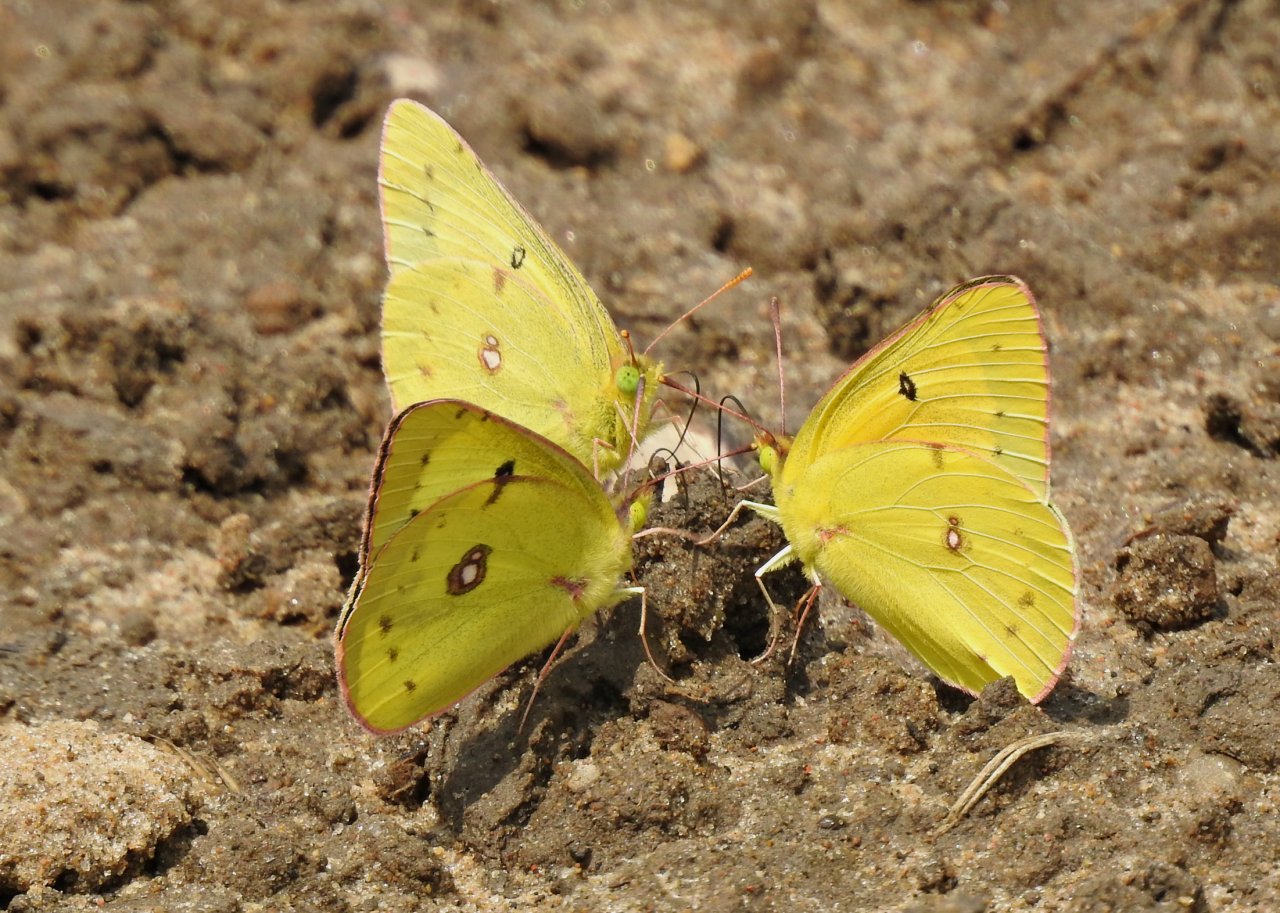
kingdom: Animalia
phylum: Arthropoda
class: Insecta
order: Lepidoptera
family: Pieridae
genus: Colias
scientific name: Colias eurytheme
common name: Orange Sulphur
